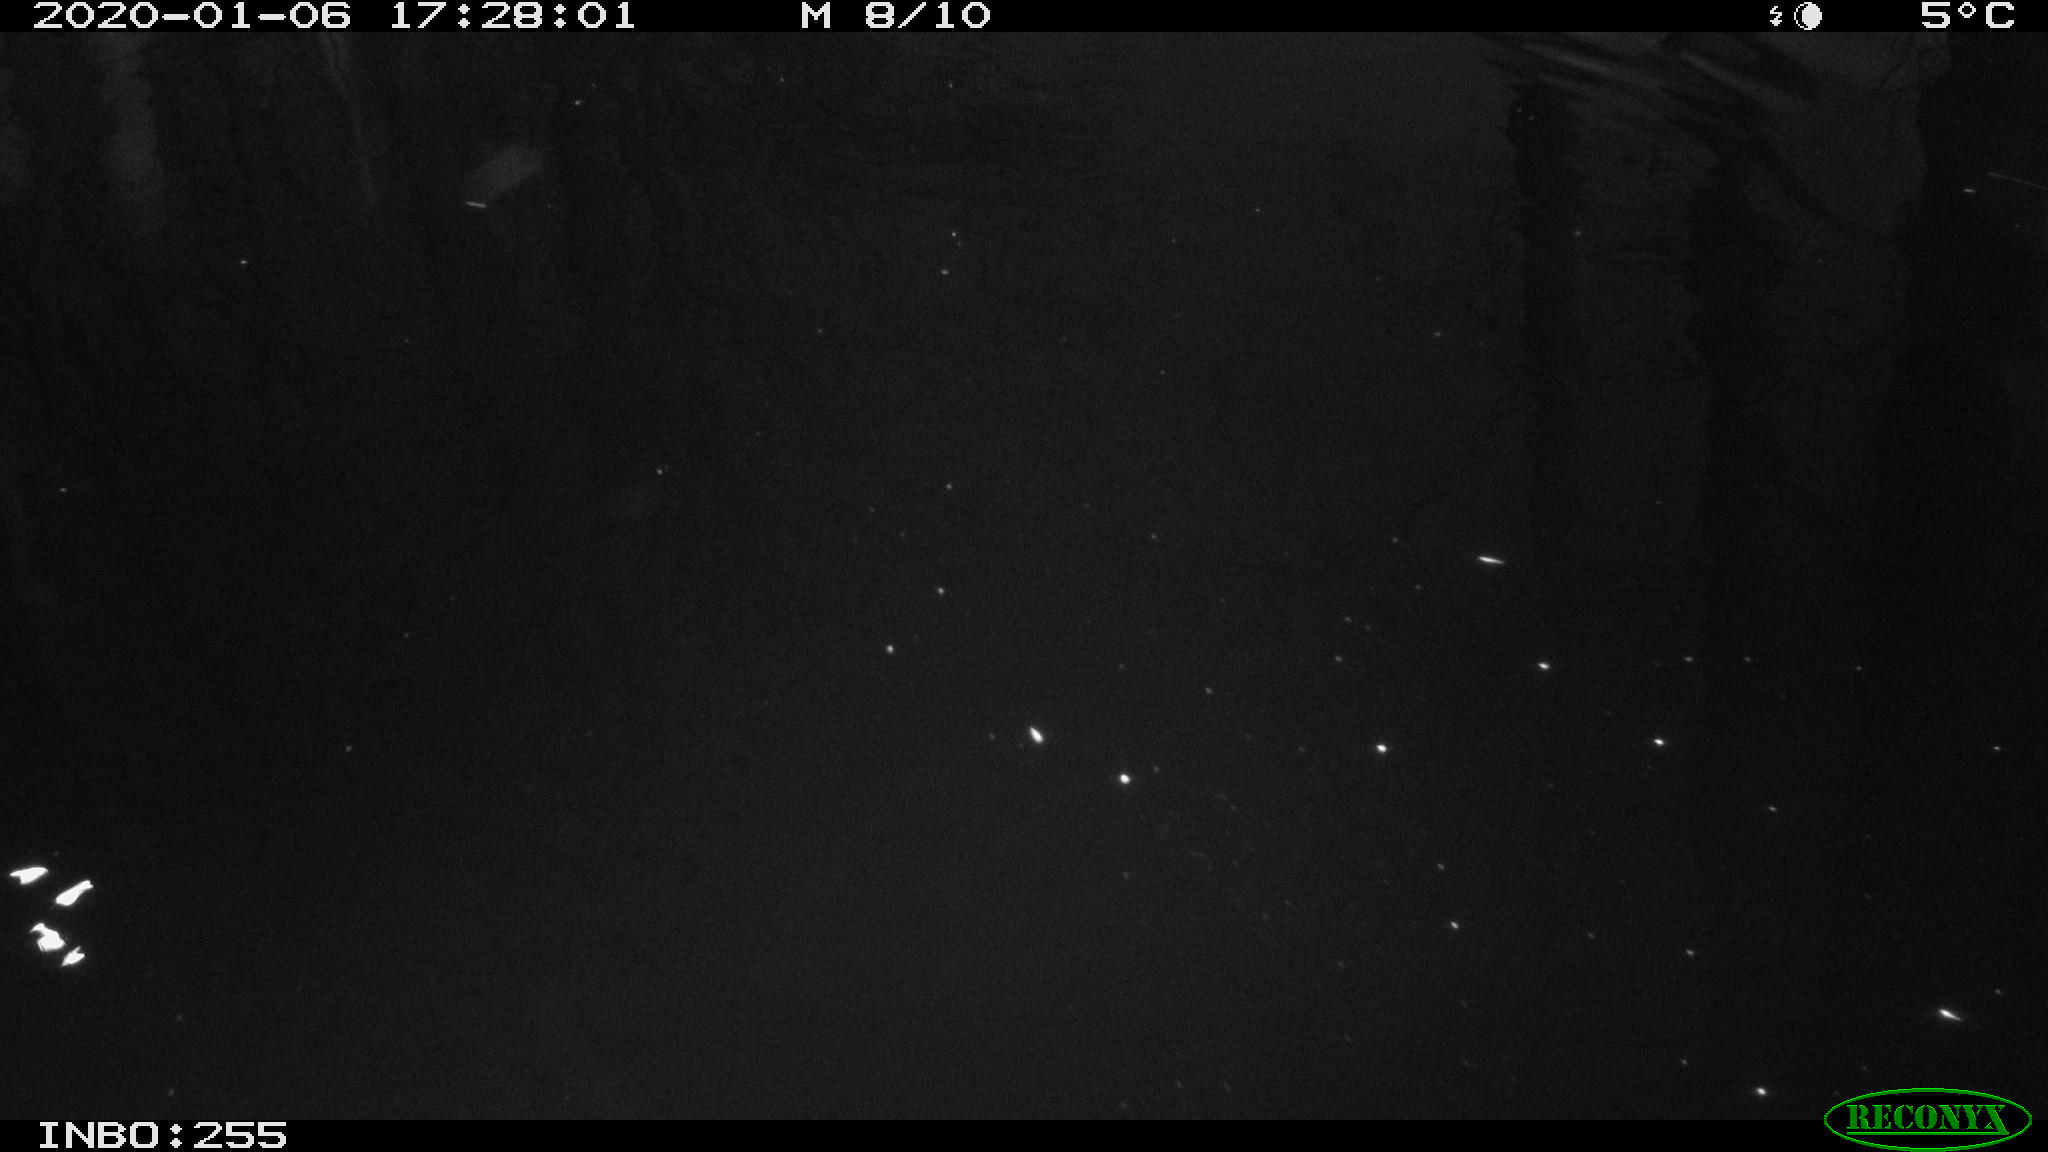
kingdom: Animalia
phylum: Chordata
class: Aves
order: Gruiformes
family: Rallidae
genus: Gallinula
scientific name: Gallinula chloropus
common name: Common moorhen
